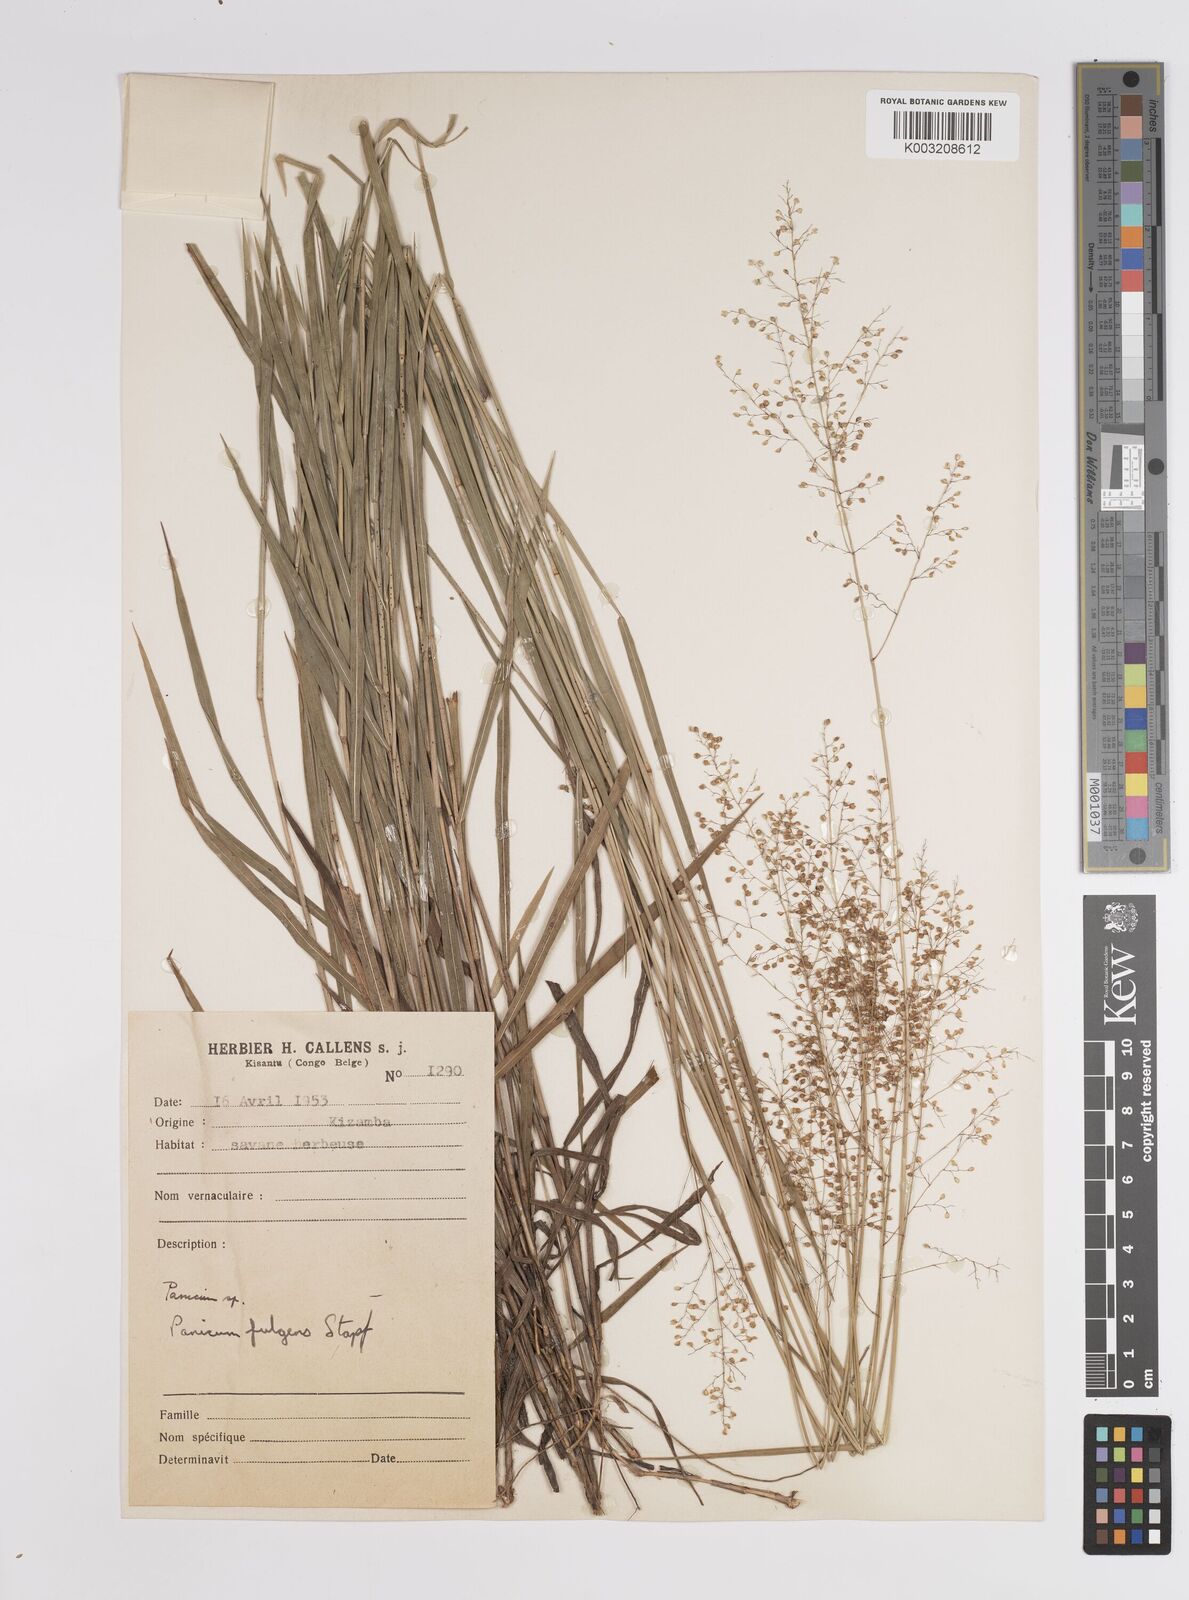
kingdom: Plantae
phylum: Tracheophyta
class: Liliopsida
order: Poales
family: Poaceae
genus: Trichanthecium
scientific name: Trichanthecium nervatum
